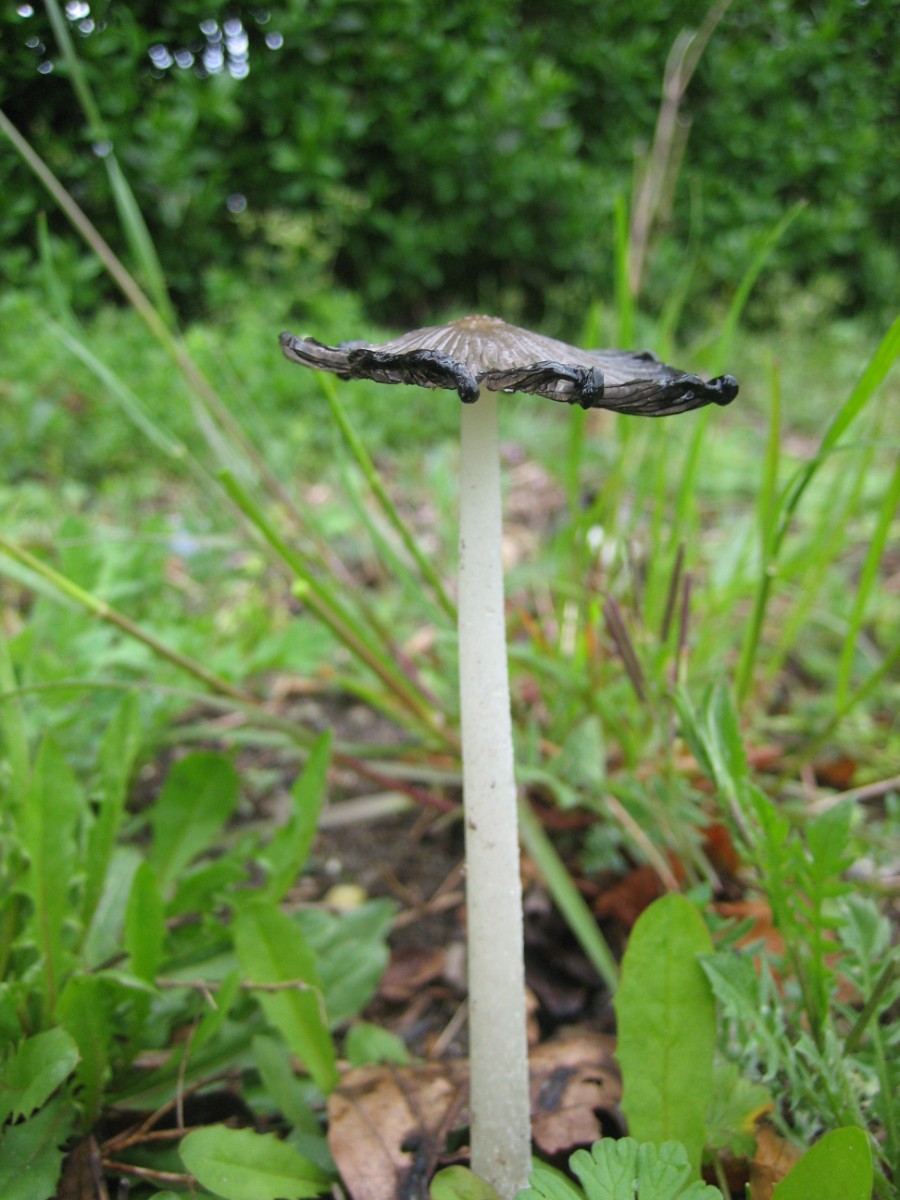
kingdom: Fungi
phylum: Basidiomycota
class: Agaricomycetes
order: Agaricales
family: Psathyrellaceae
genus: Coprinopsis
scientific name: Coprinopsis
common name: blækhat
